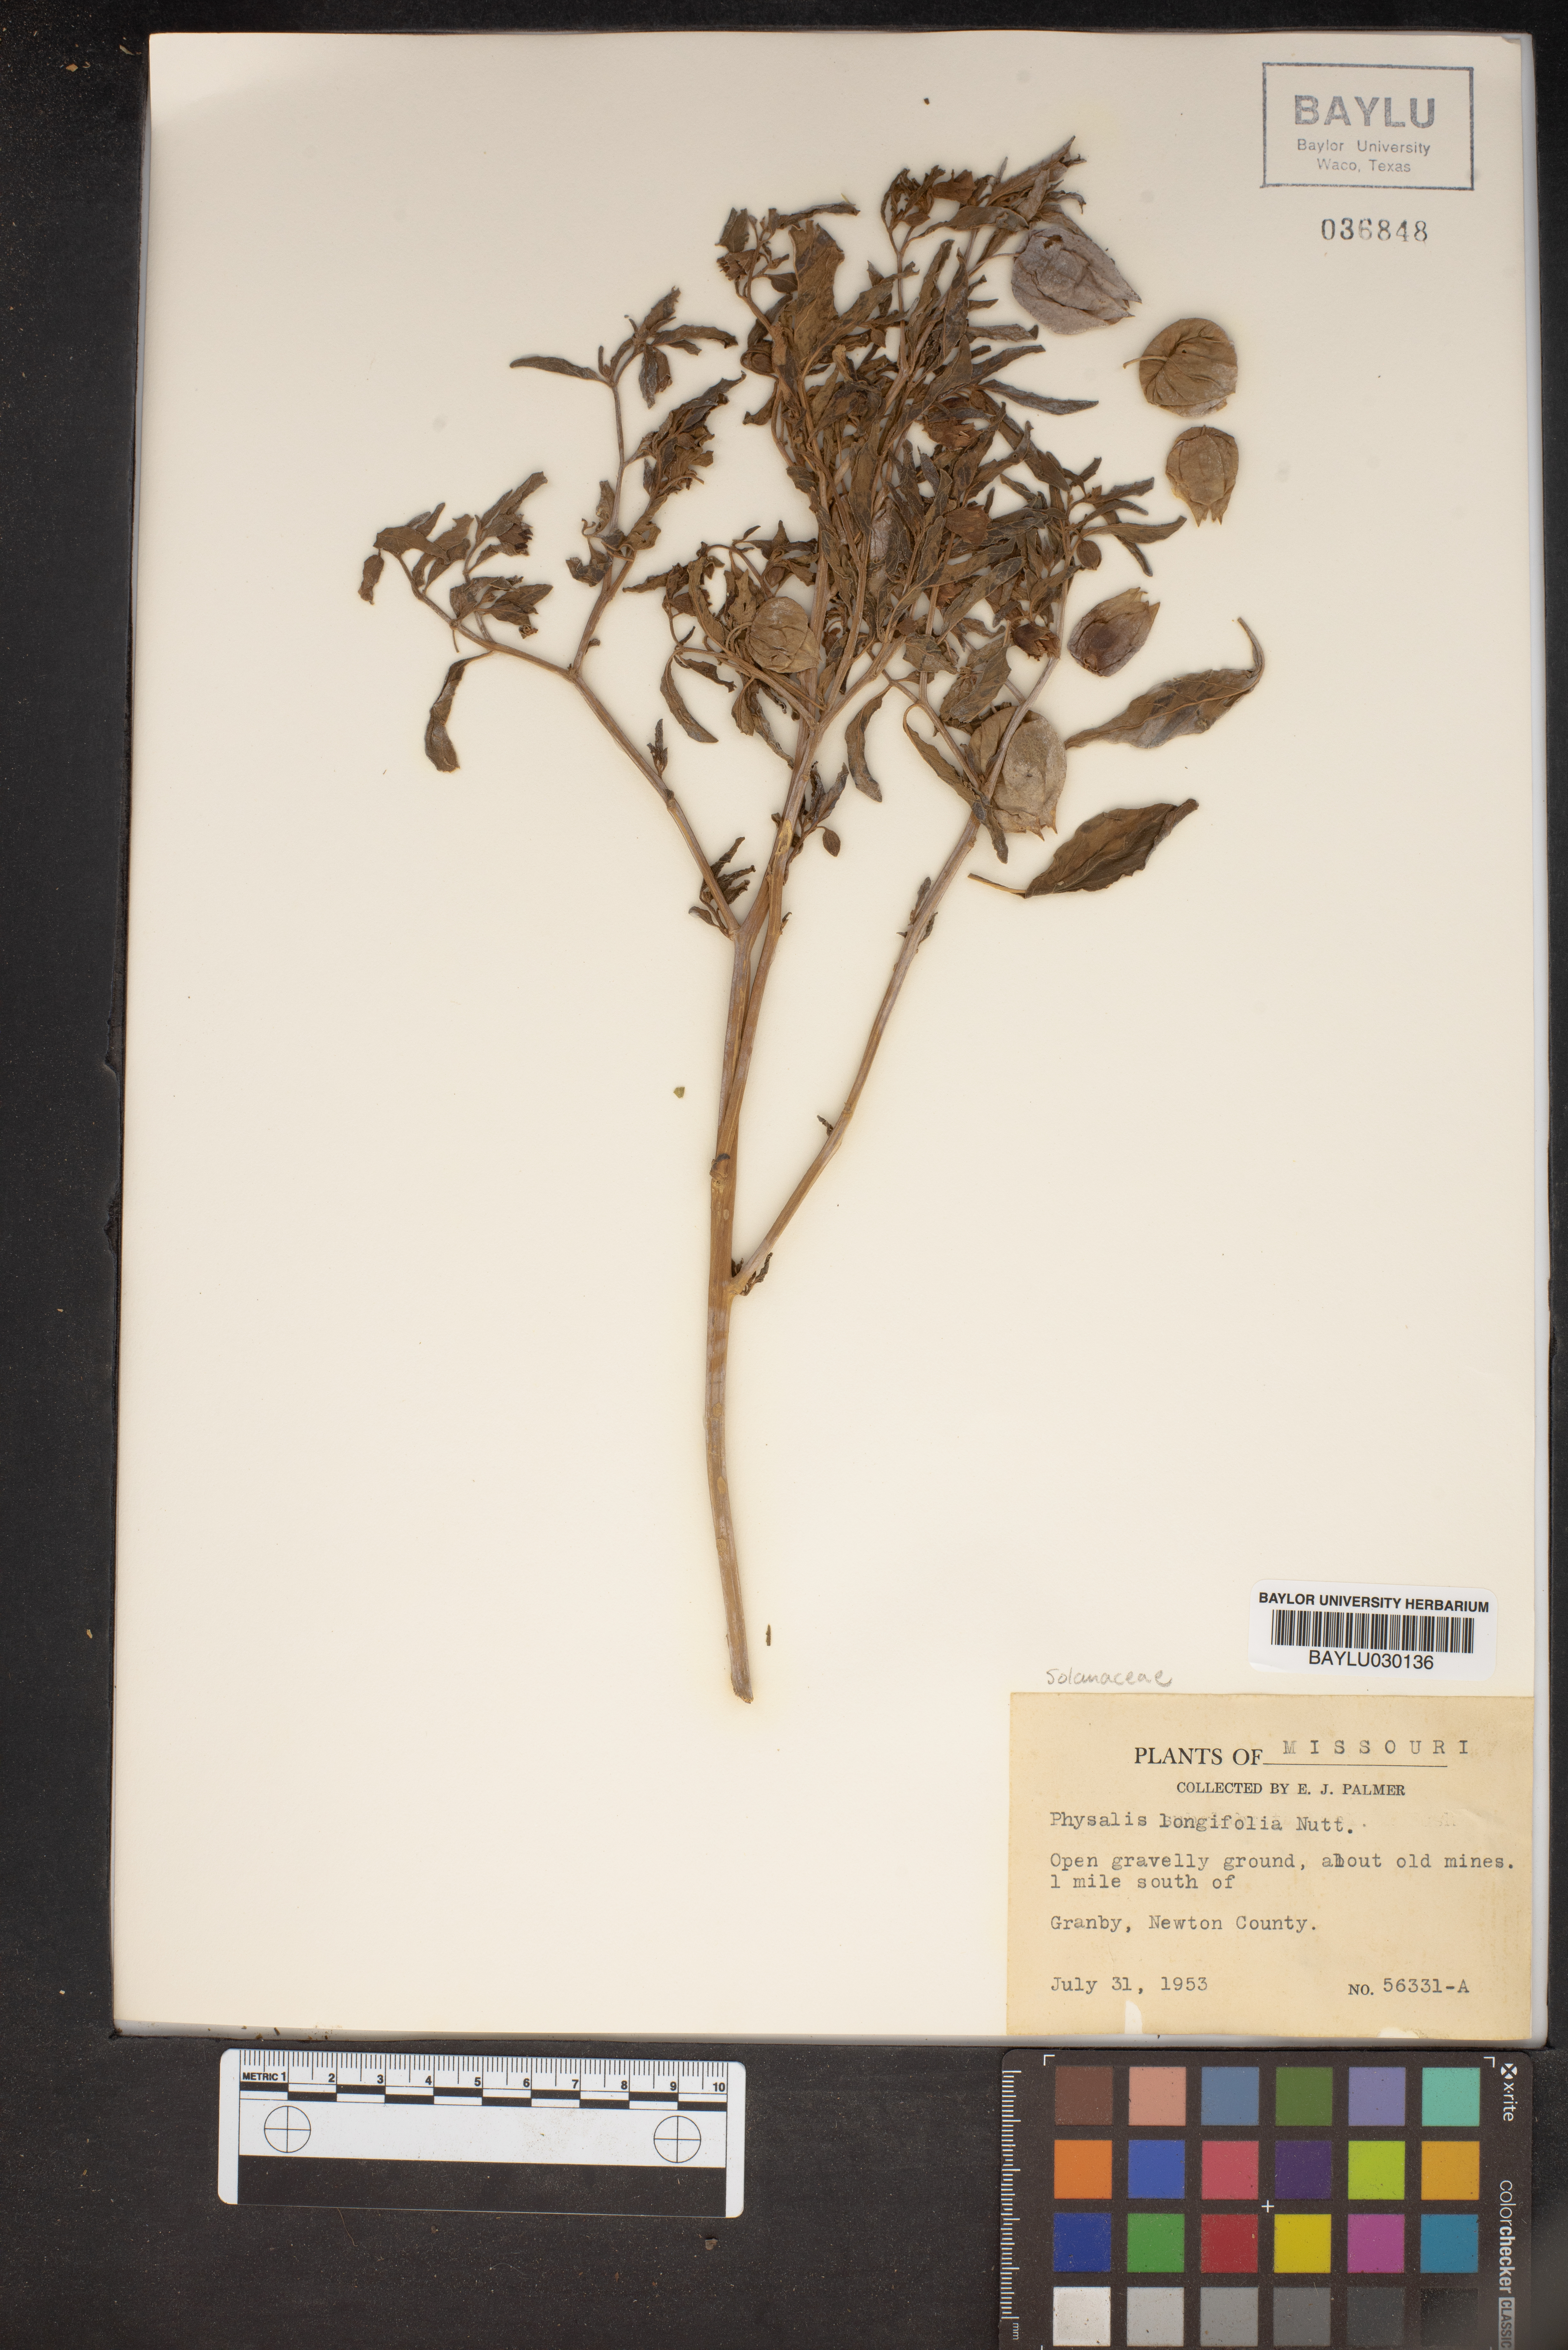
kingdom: Plantae
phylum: Tracheophyta
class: Magnoliopsida
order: Solanales
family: Solanaceae
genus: Physalis
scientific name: Physalis longifolia
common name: Common ground-cherry
